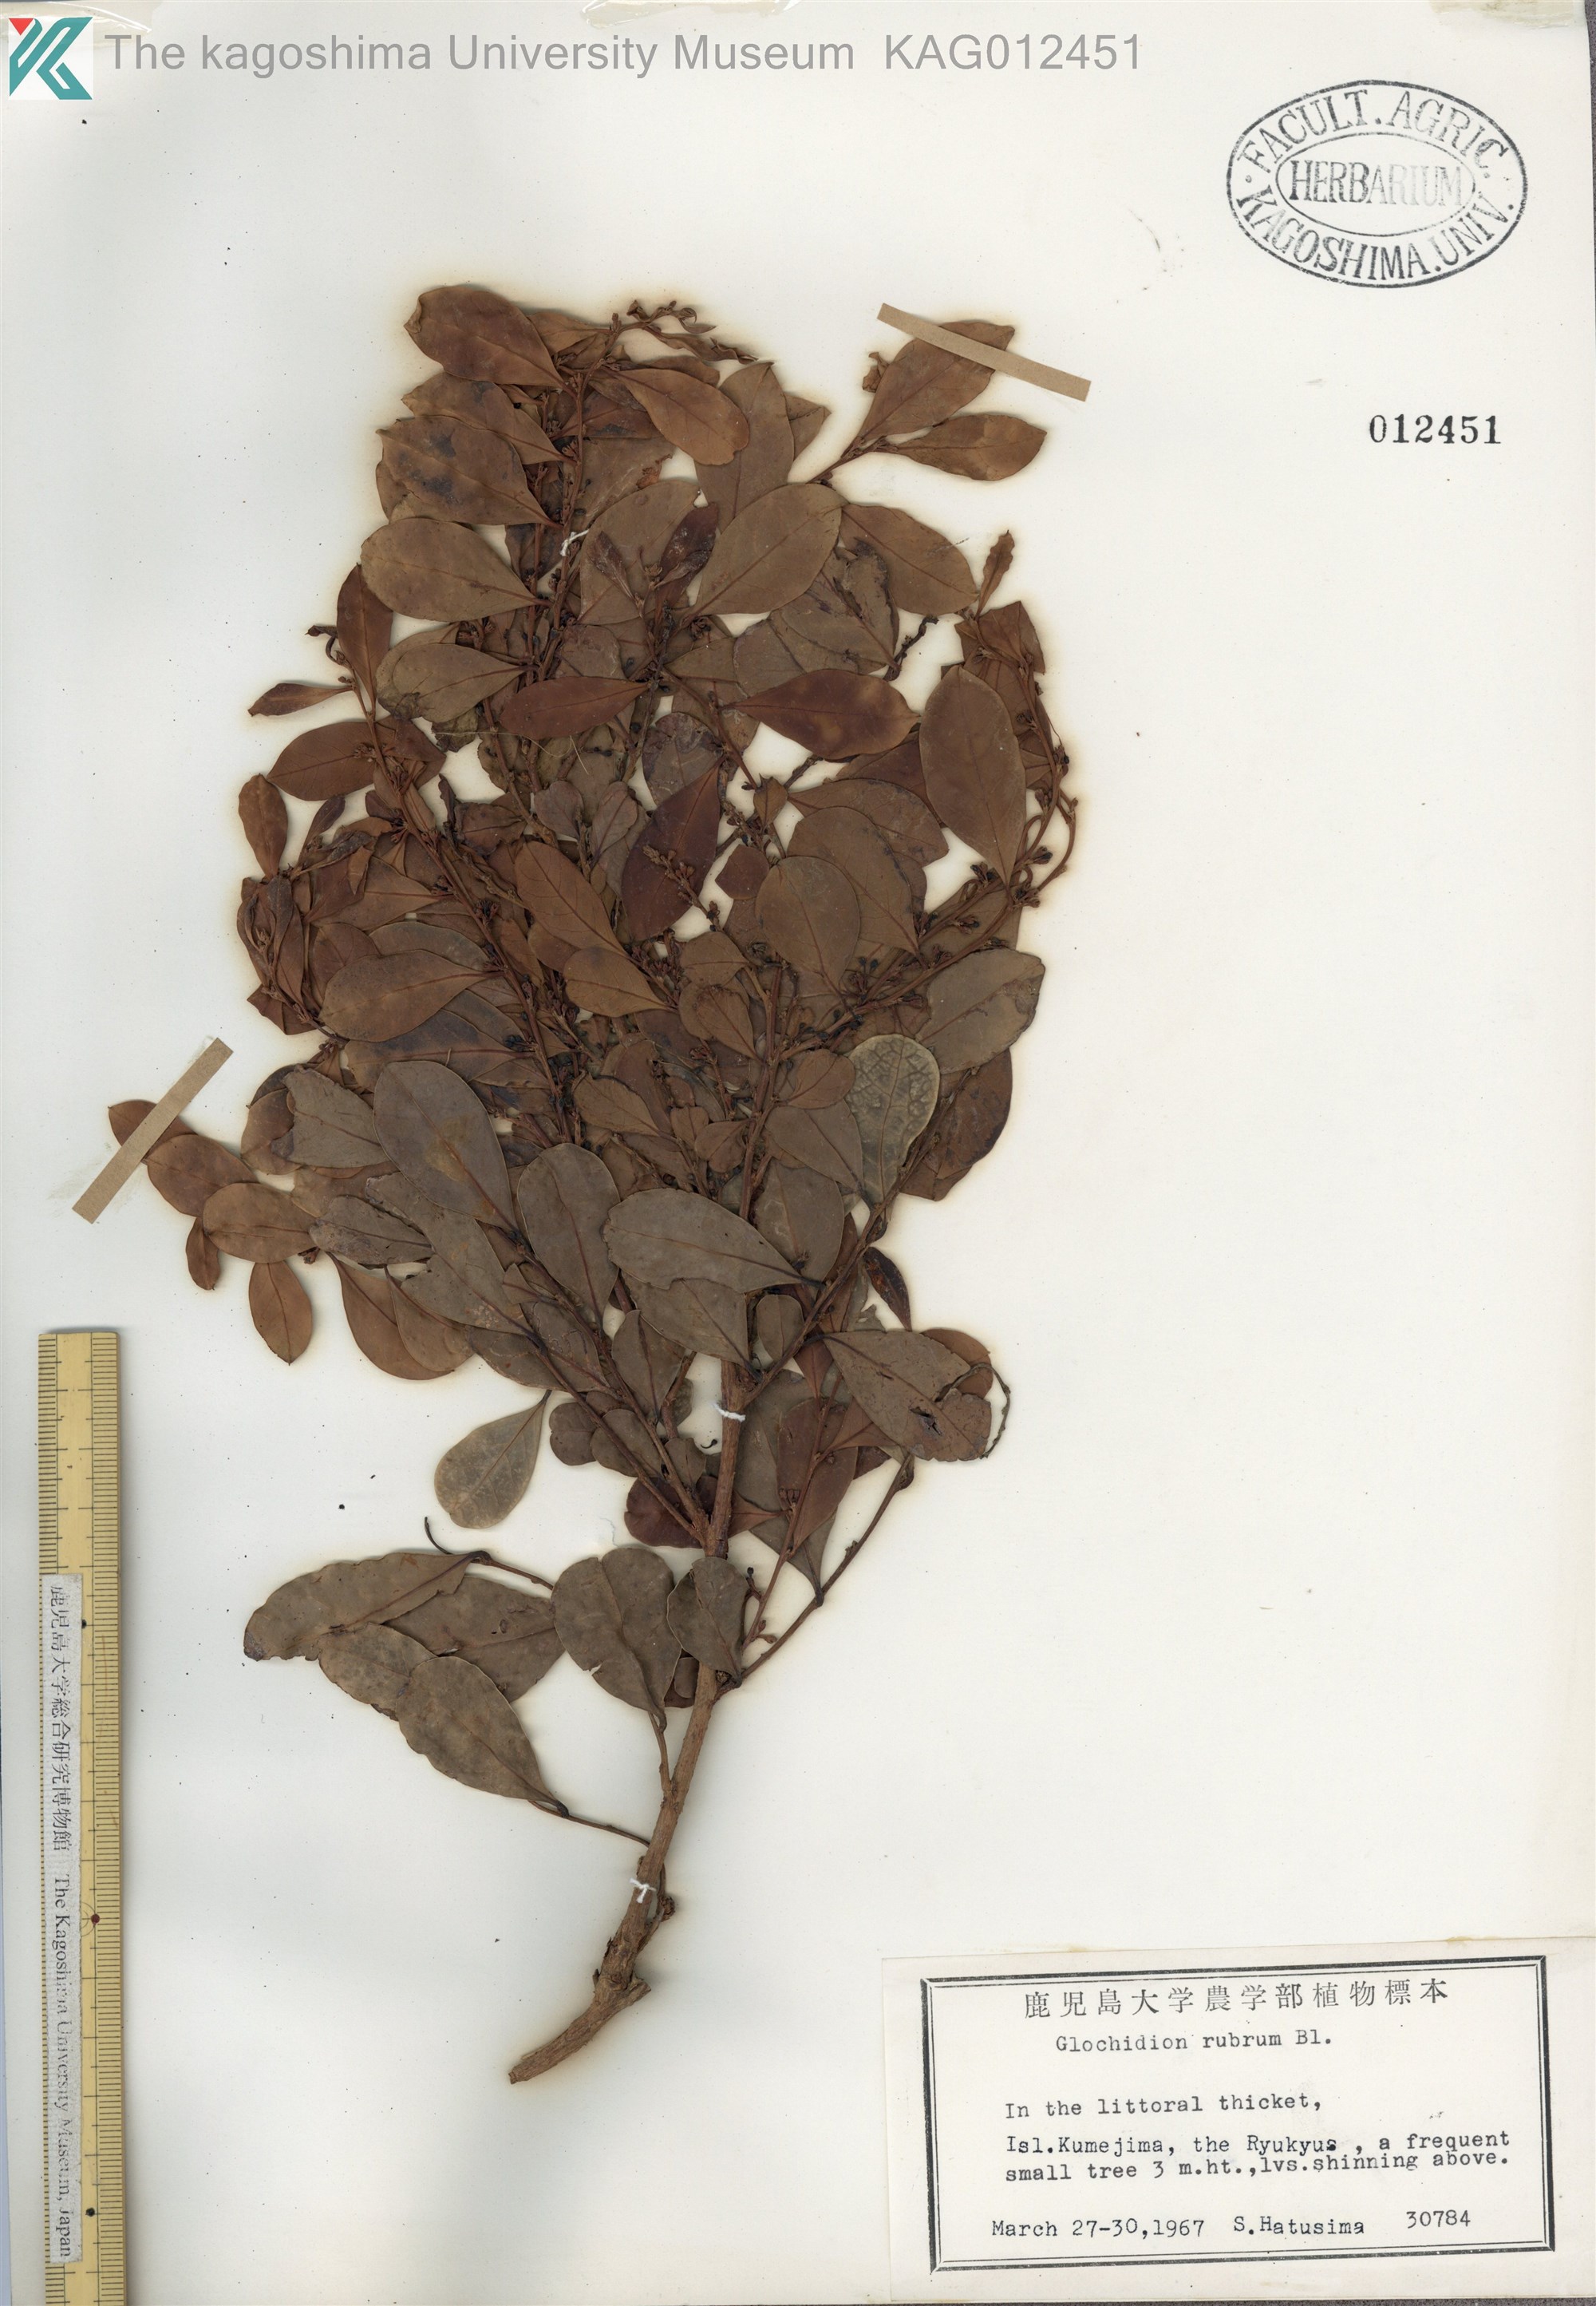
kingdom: Plantae
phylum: Tracheophyta
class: Magnoliopsida
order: Malpighiales
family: Phyllanthaceae
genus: Glochidion
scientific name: Glochidion rubrum
